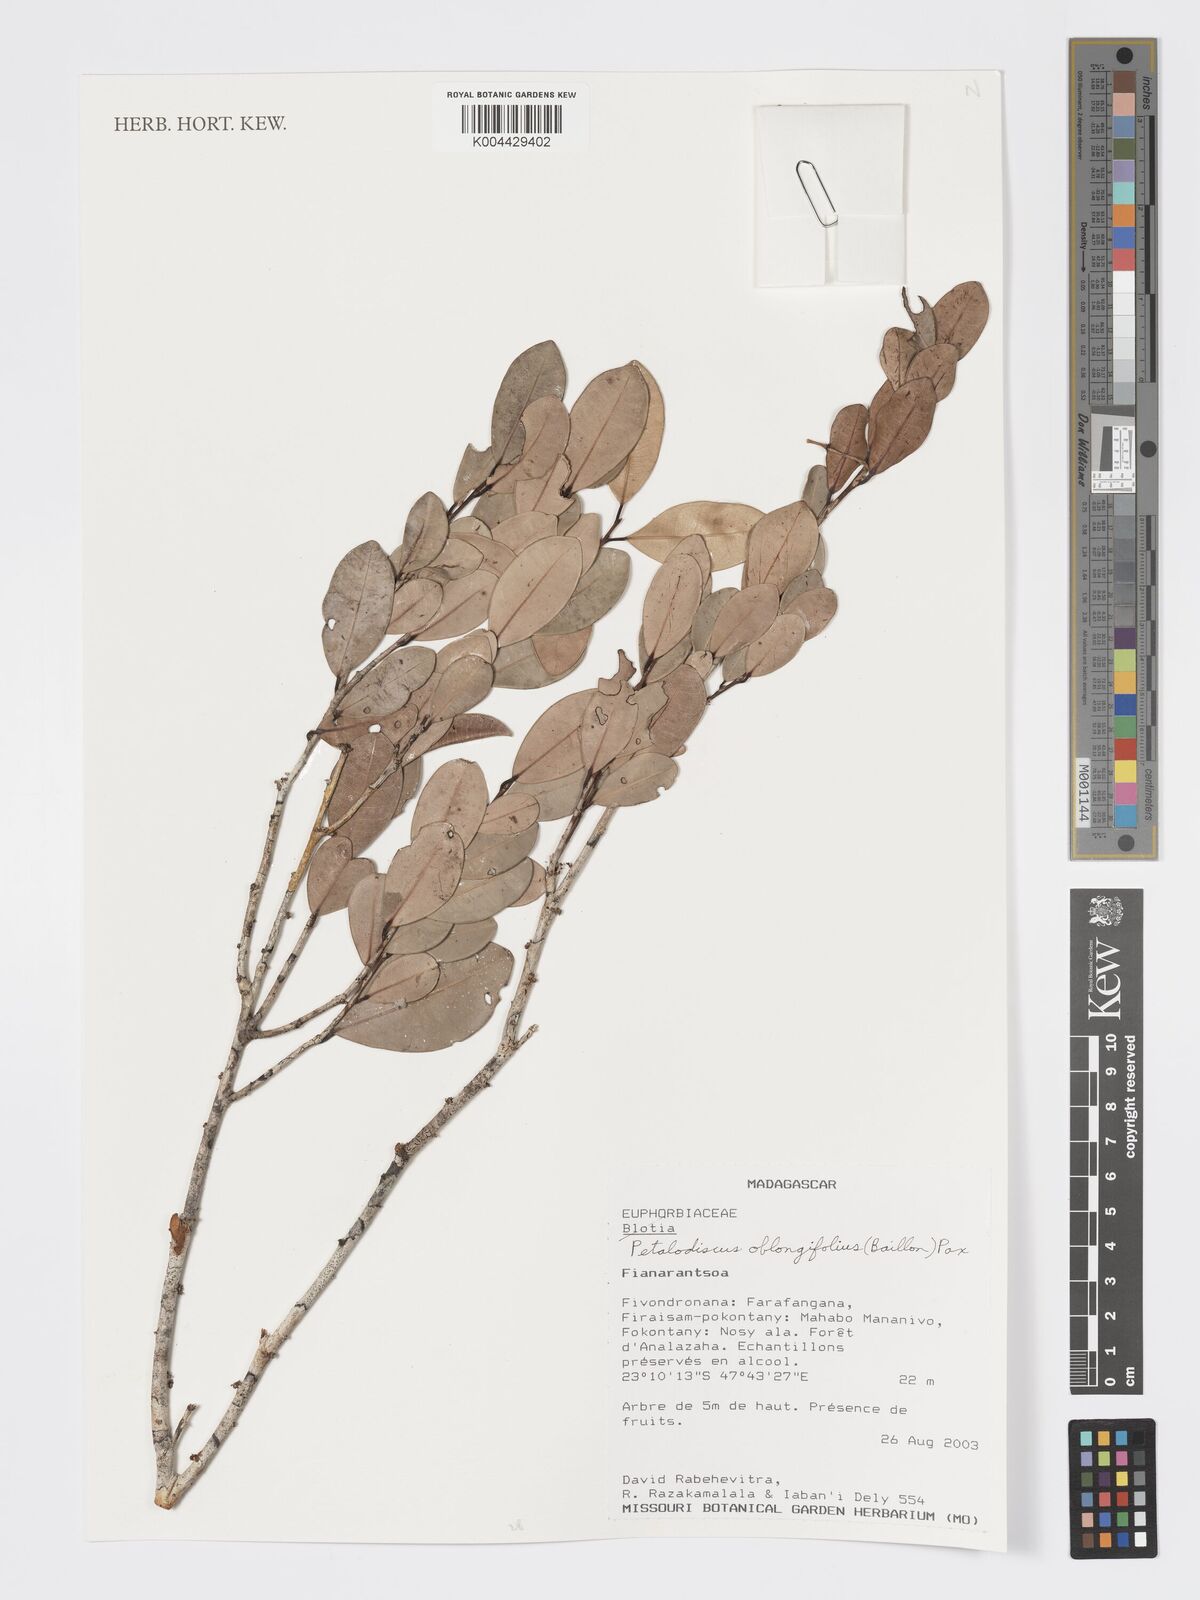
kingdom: Plantae
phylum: Tracheophyta
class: Magnoliopsida
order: Malpighiales
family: Phyllanthaceae
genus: Wielandia
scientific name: Wielandia oblongifolia
